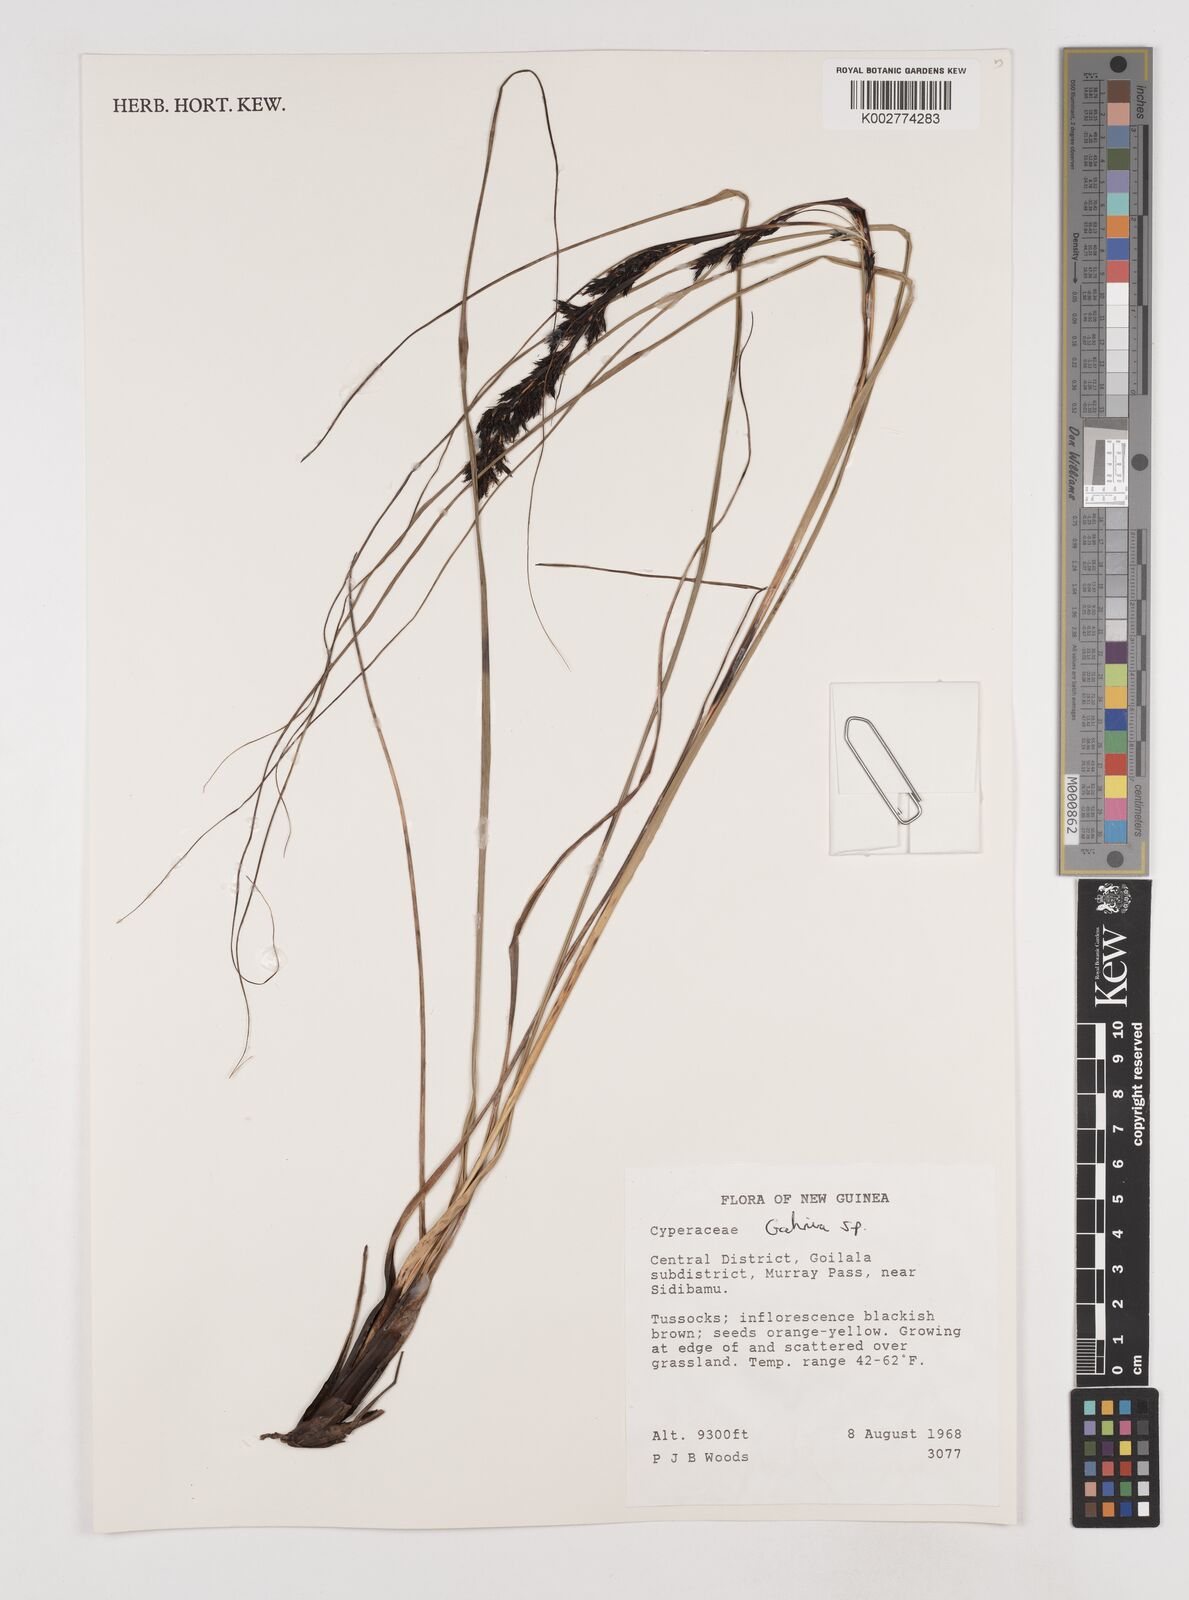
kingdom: Plantae
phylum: Tracheophyta
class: Liliopsida
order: Poales
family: Cyperaceae
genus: Gahnia
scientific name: Gahnia
